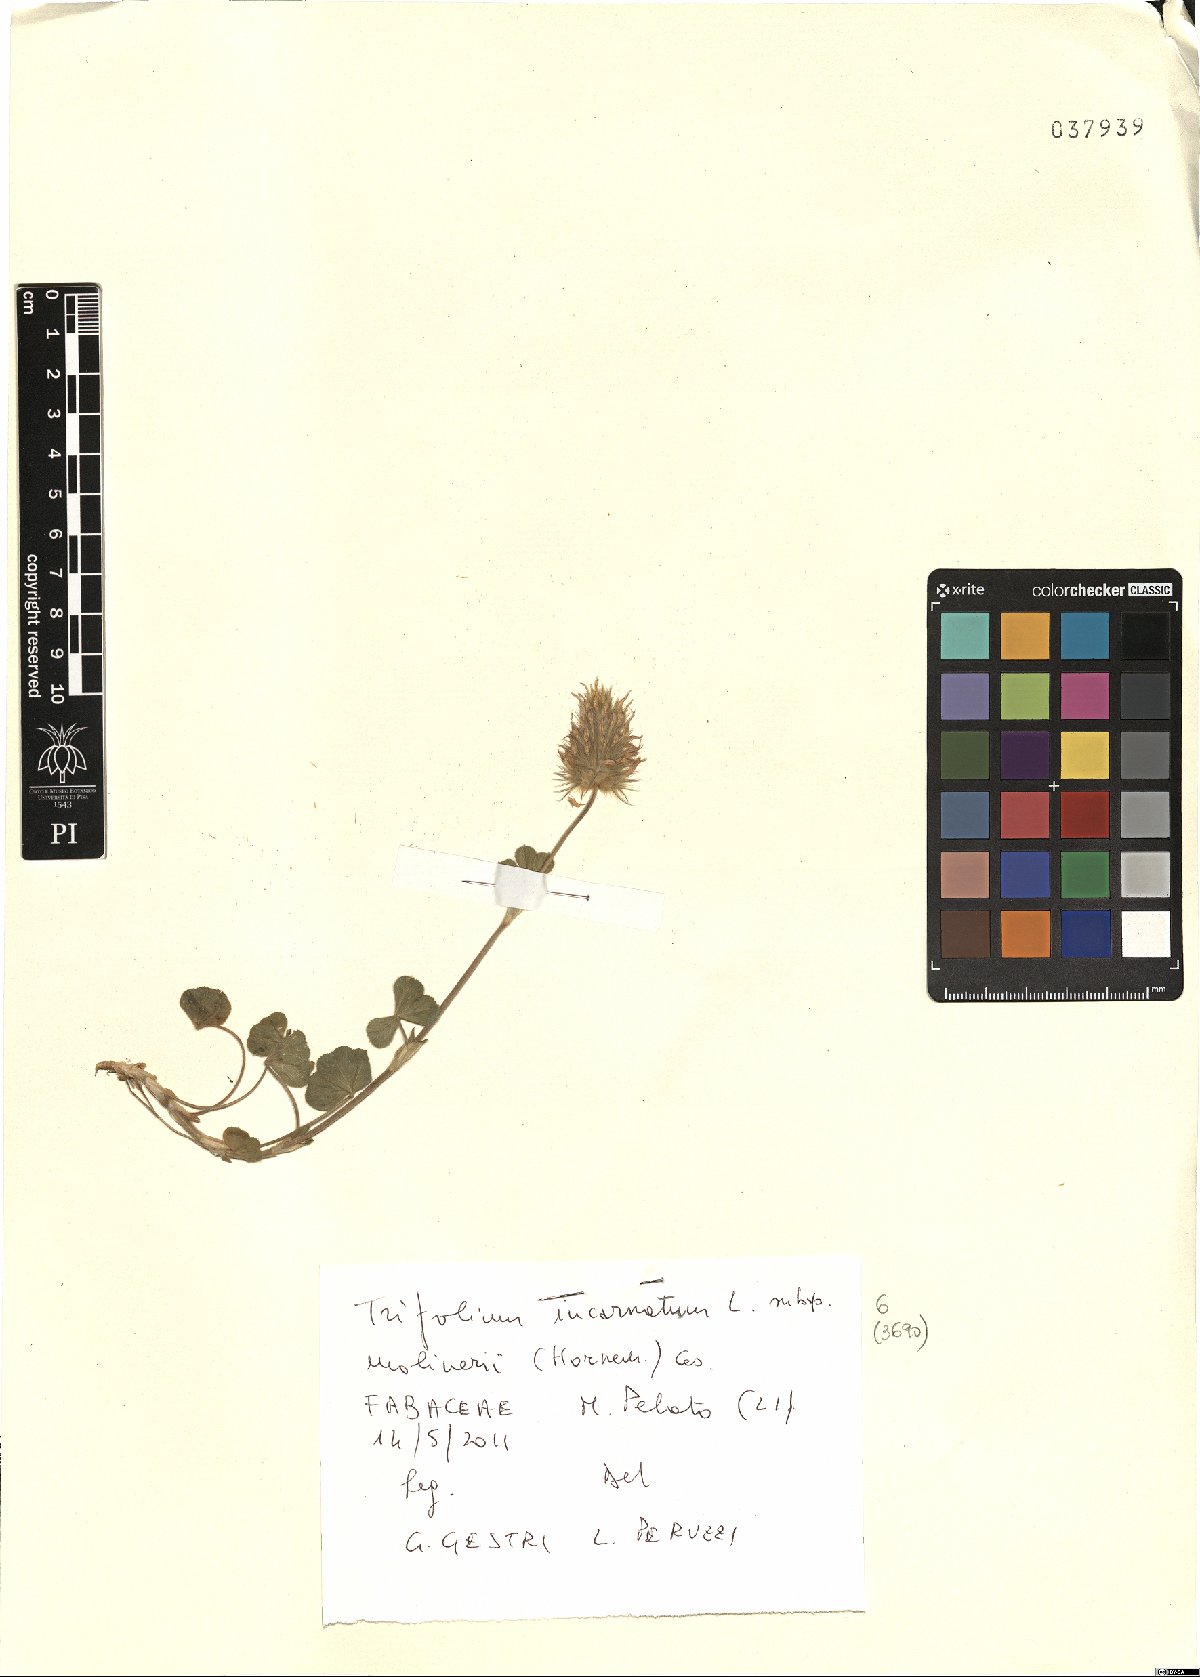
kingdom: Plantae
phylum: Tracheophyta
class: Magnoliopsida
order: Fabales
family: Fabaceae
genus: Trifolium
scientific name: Trifolium incarnatum
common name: Crimson clover
